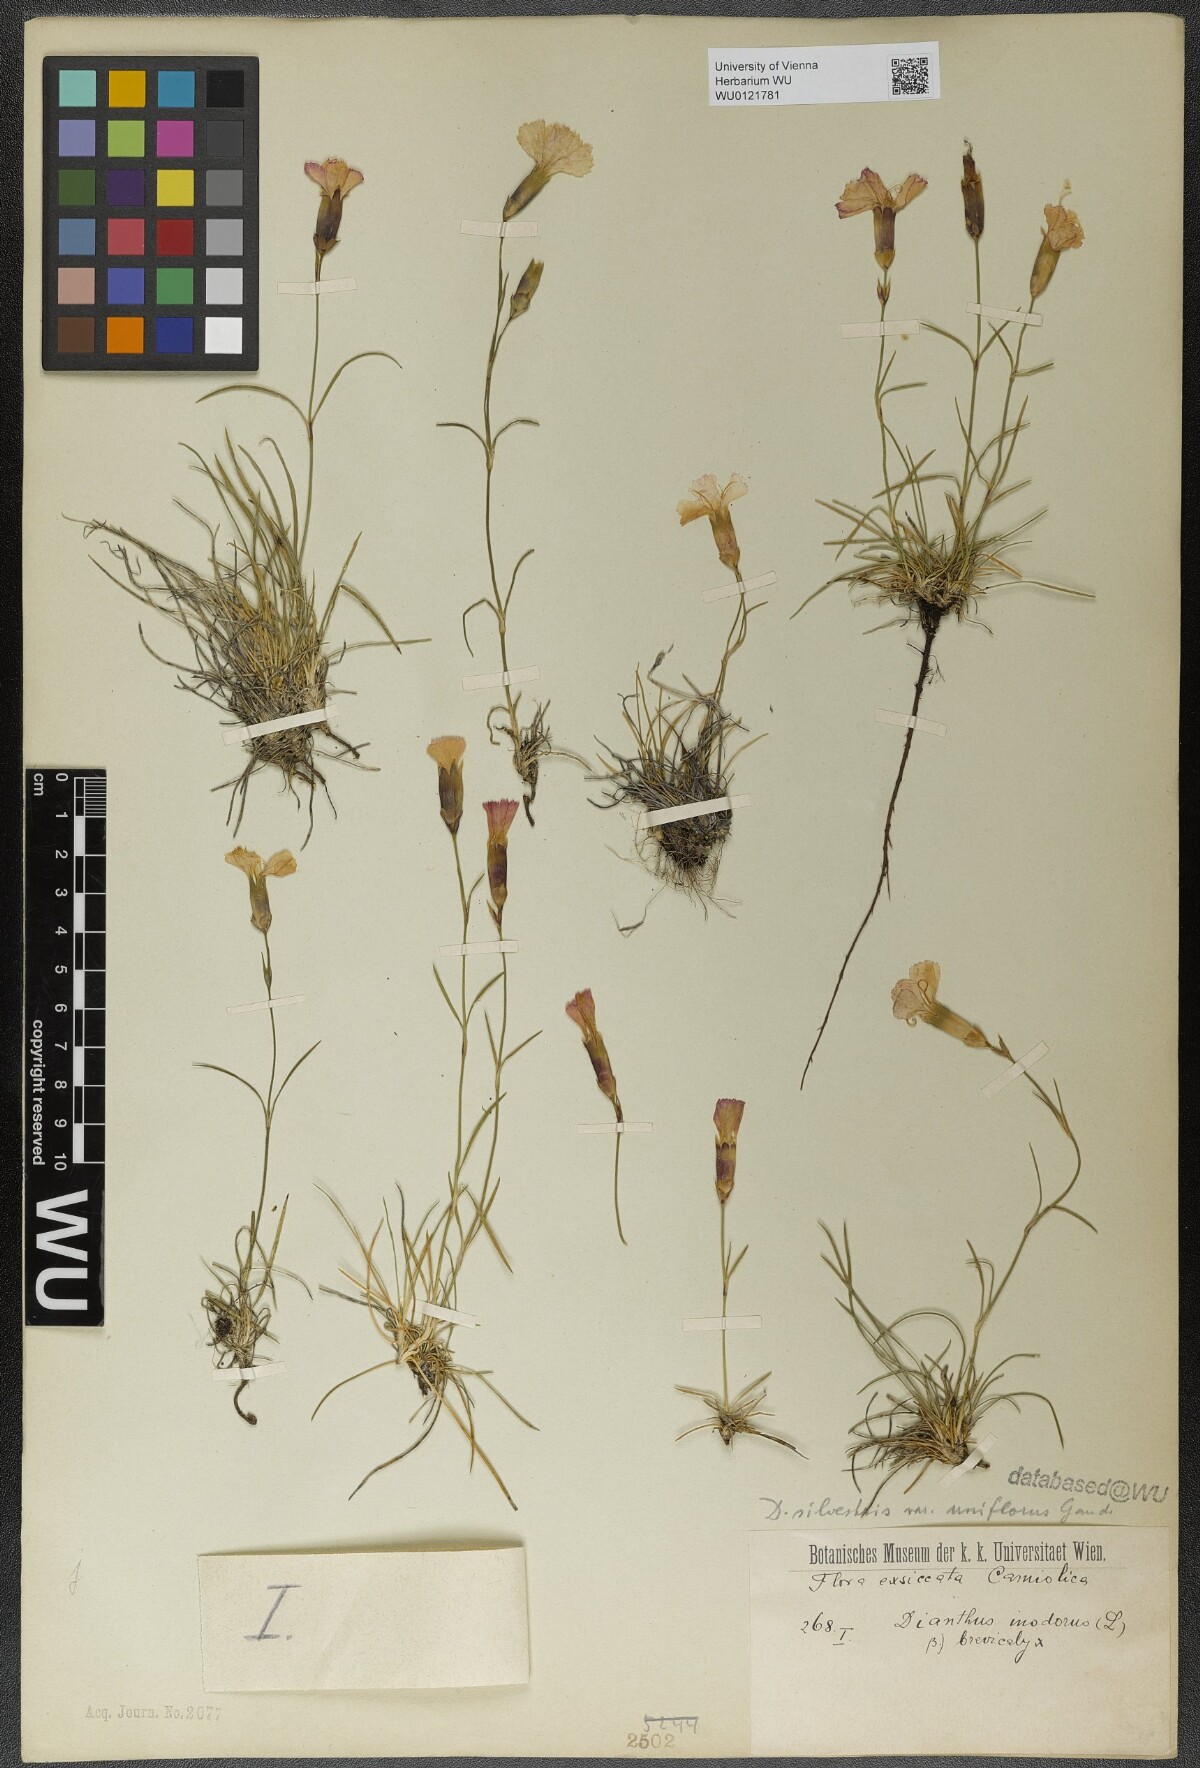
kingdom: Plantae
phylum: Tracheophyta
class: Magnoliopsida
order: Caryophyllales
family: Caryophyllaceae
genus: Dianthus
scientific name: Dianthus sylvestris
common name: Wood pink
